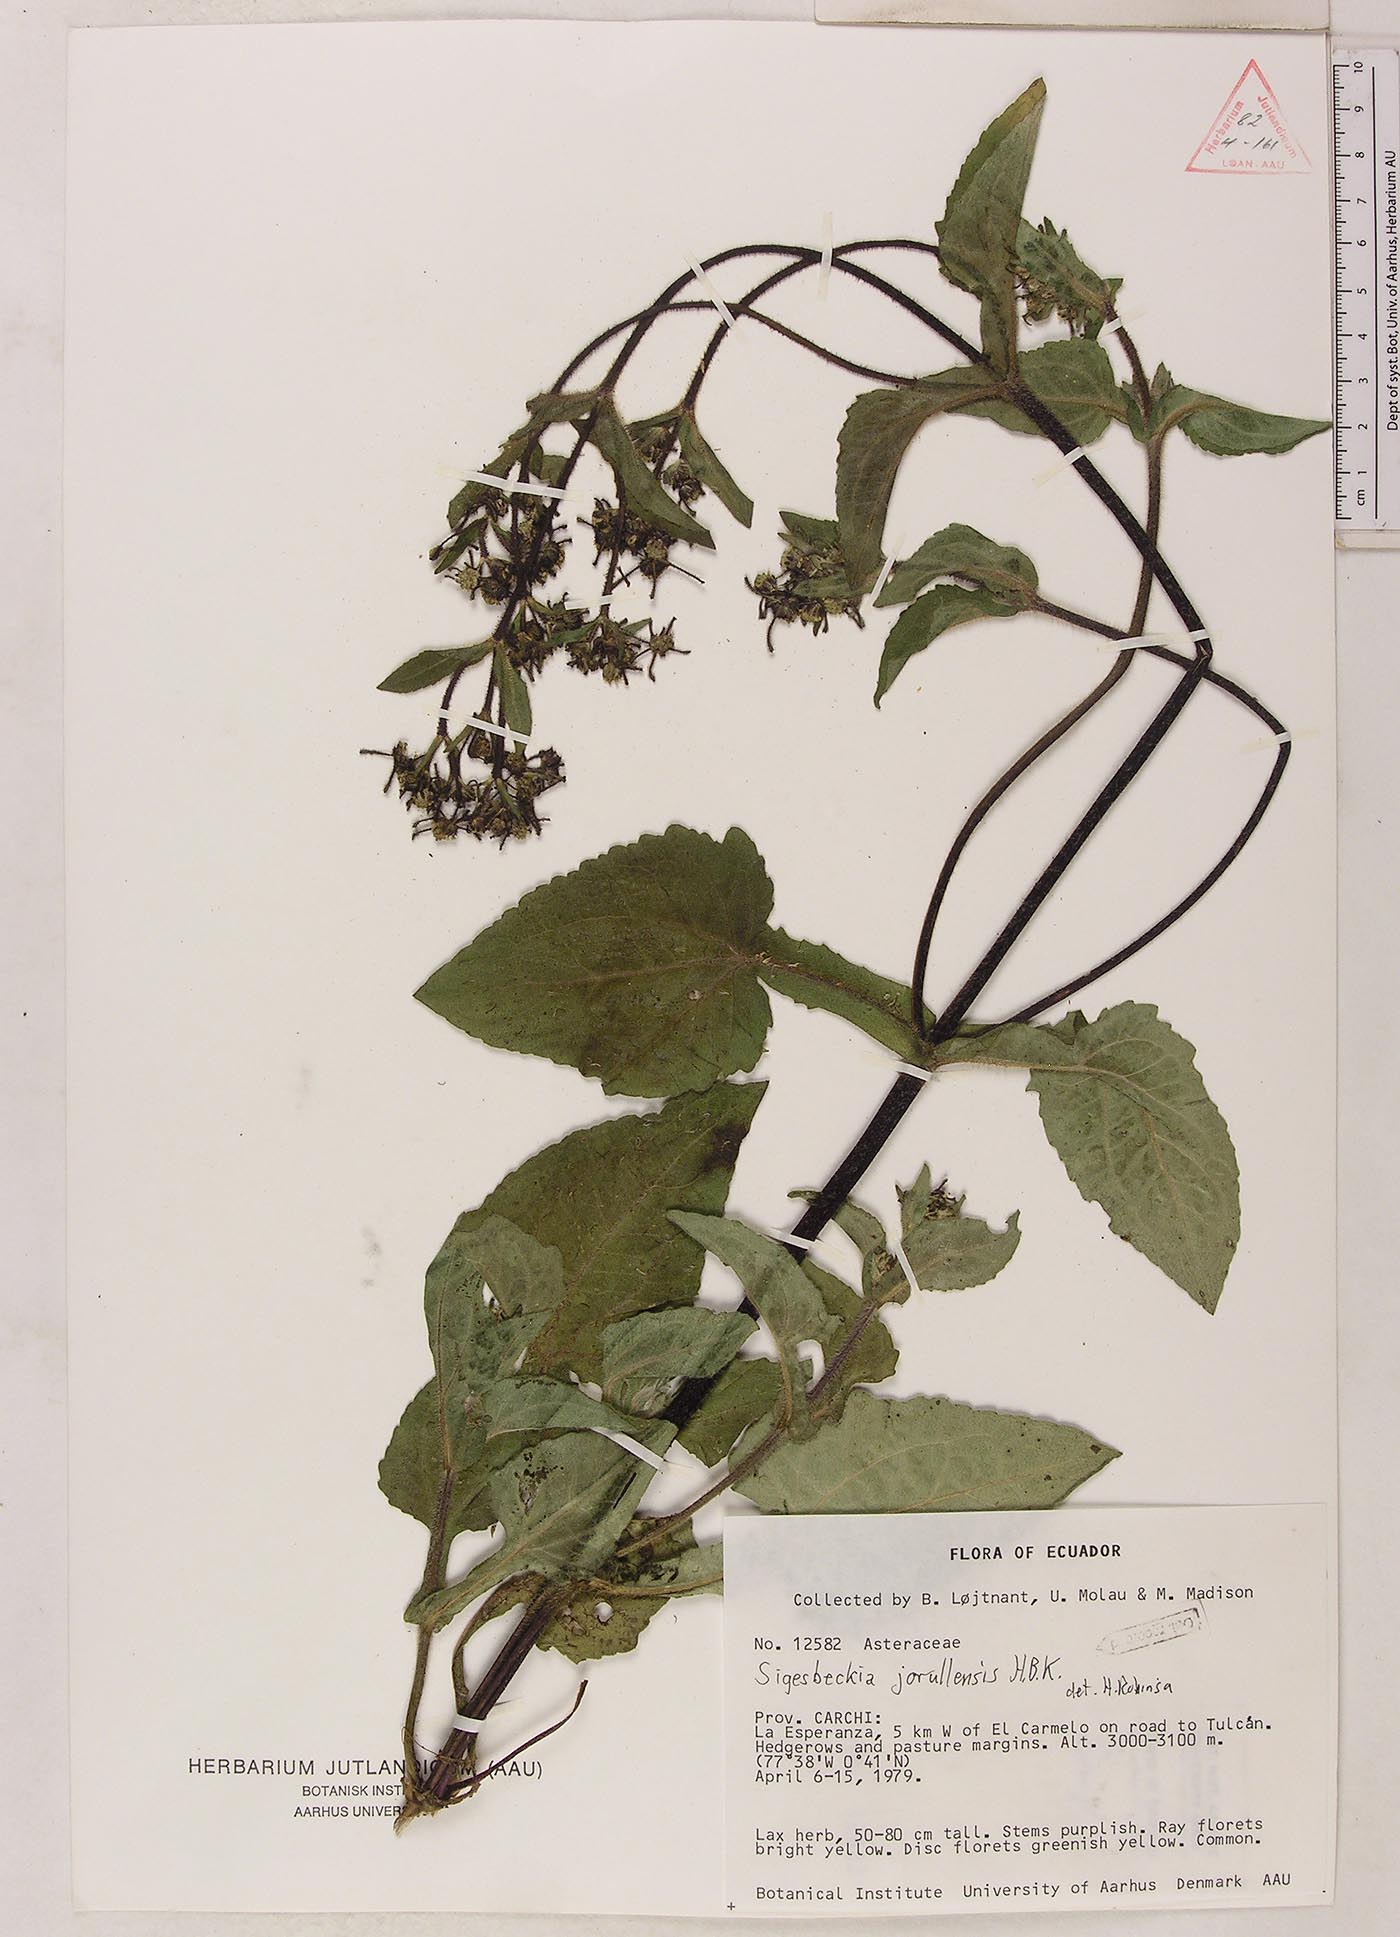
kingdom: Plantae
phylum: Tracheophyta
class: Magnoliopsida
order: Asterales
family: Asteraceae
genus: Sigesbeckia
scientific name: Sigesbeckia jorullensis
